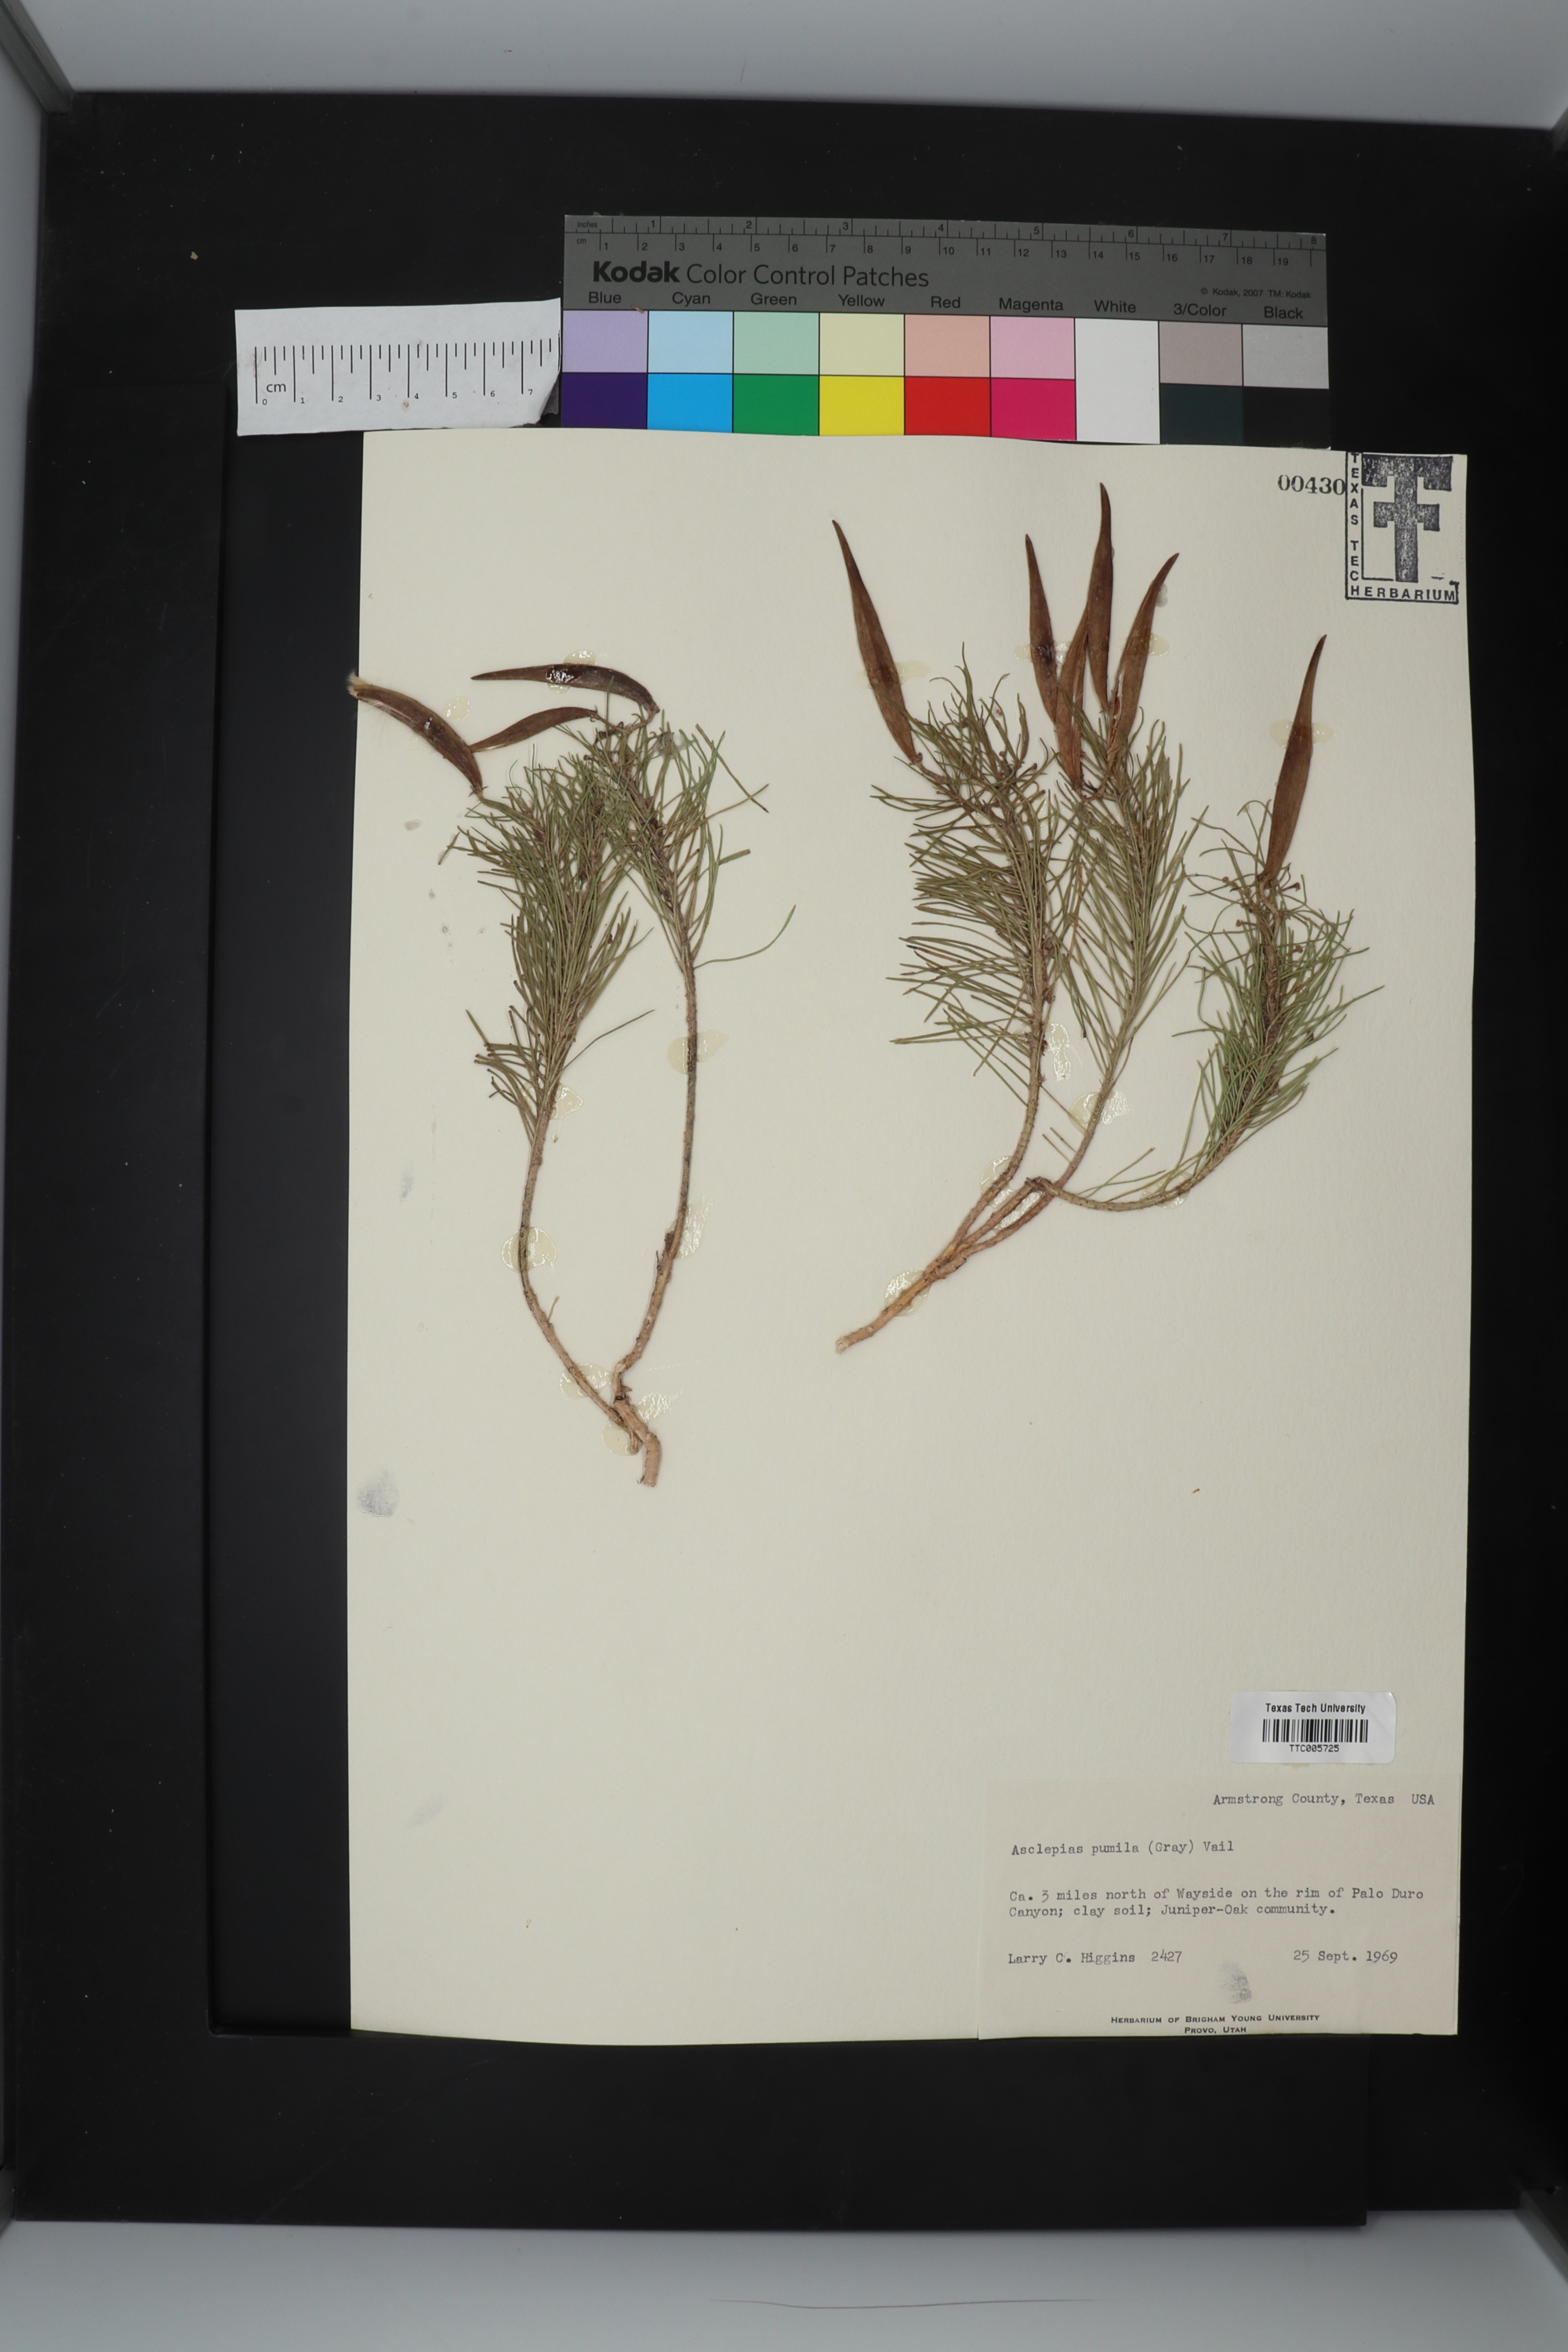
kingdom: Plantae
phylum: Tracheophyta
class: Magnoliopsida
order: Gentianales
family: Apocynaceae
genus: Asclepias
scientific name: Asclepias pumila
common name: Dwarf milkweed
